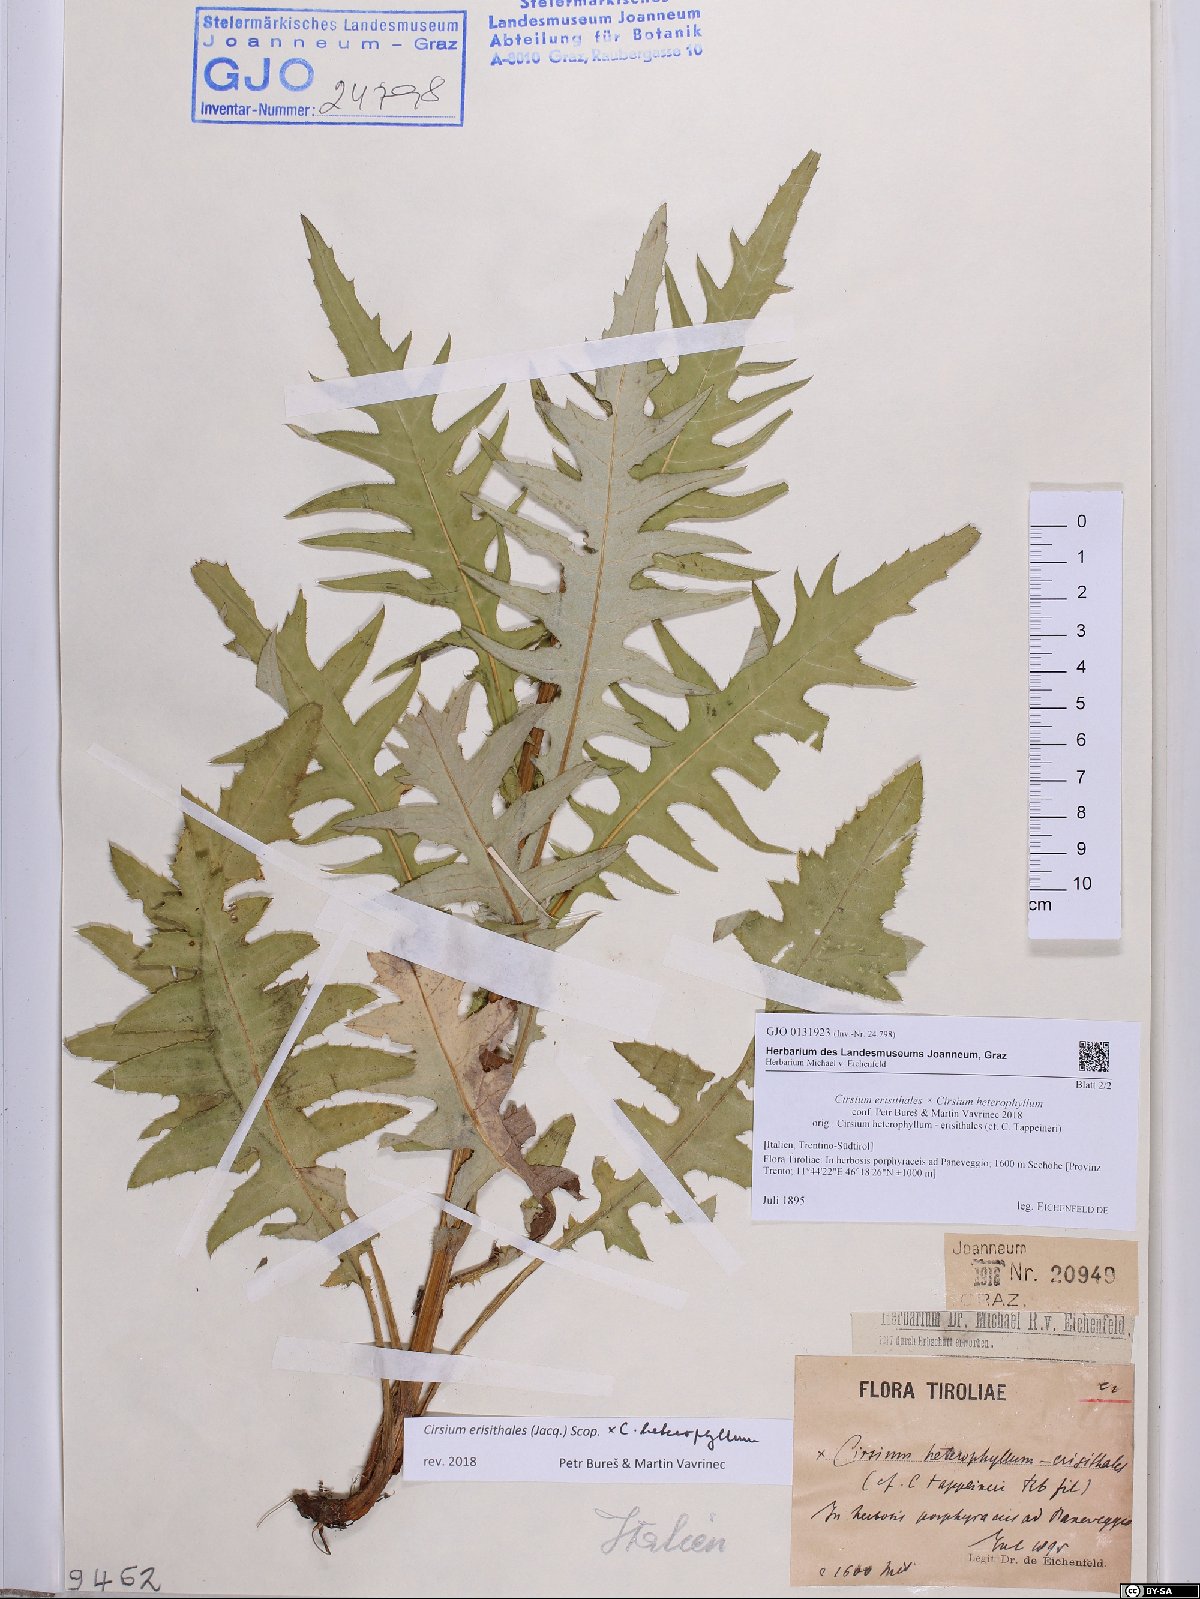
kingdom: Plantae
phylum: Tracheophyta
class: Magnoliopsida
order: Asterales
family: Asteraceae
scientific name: Asteraceae
